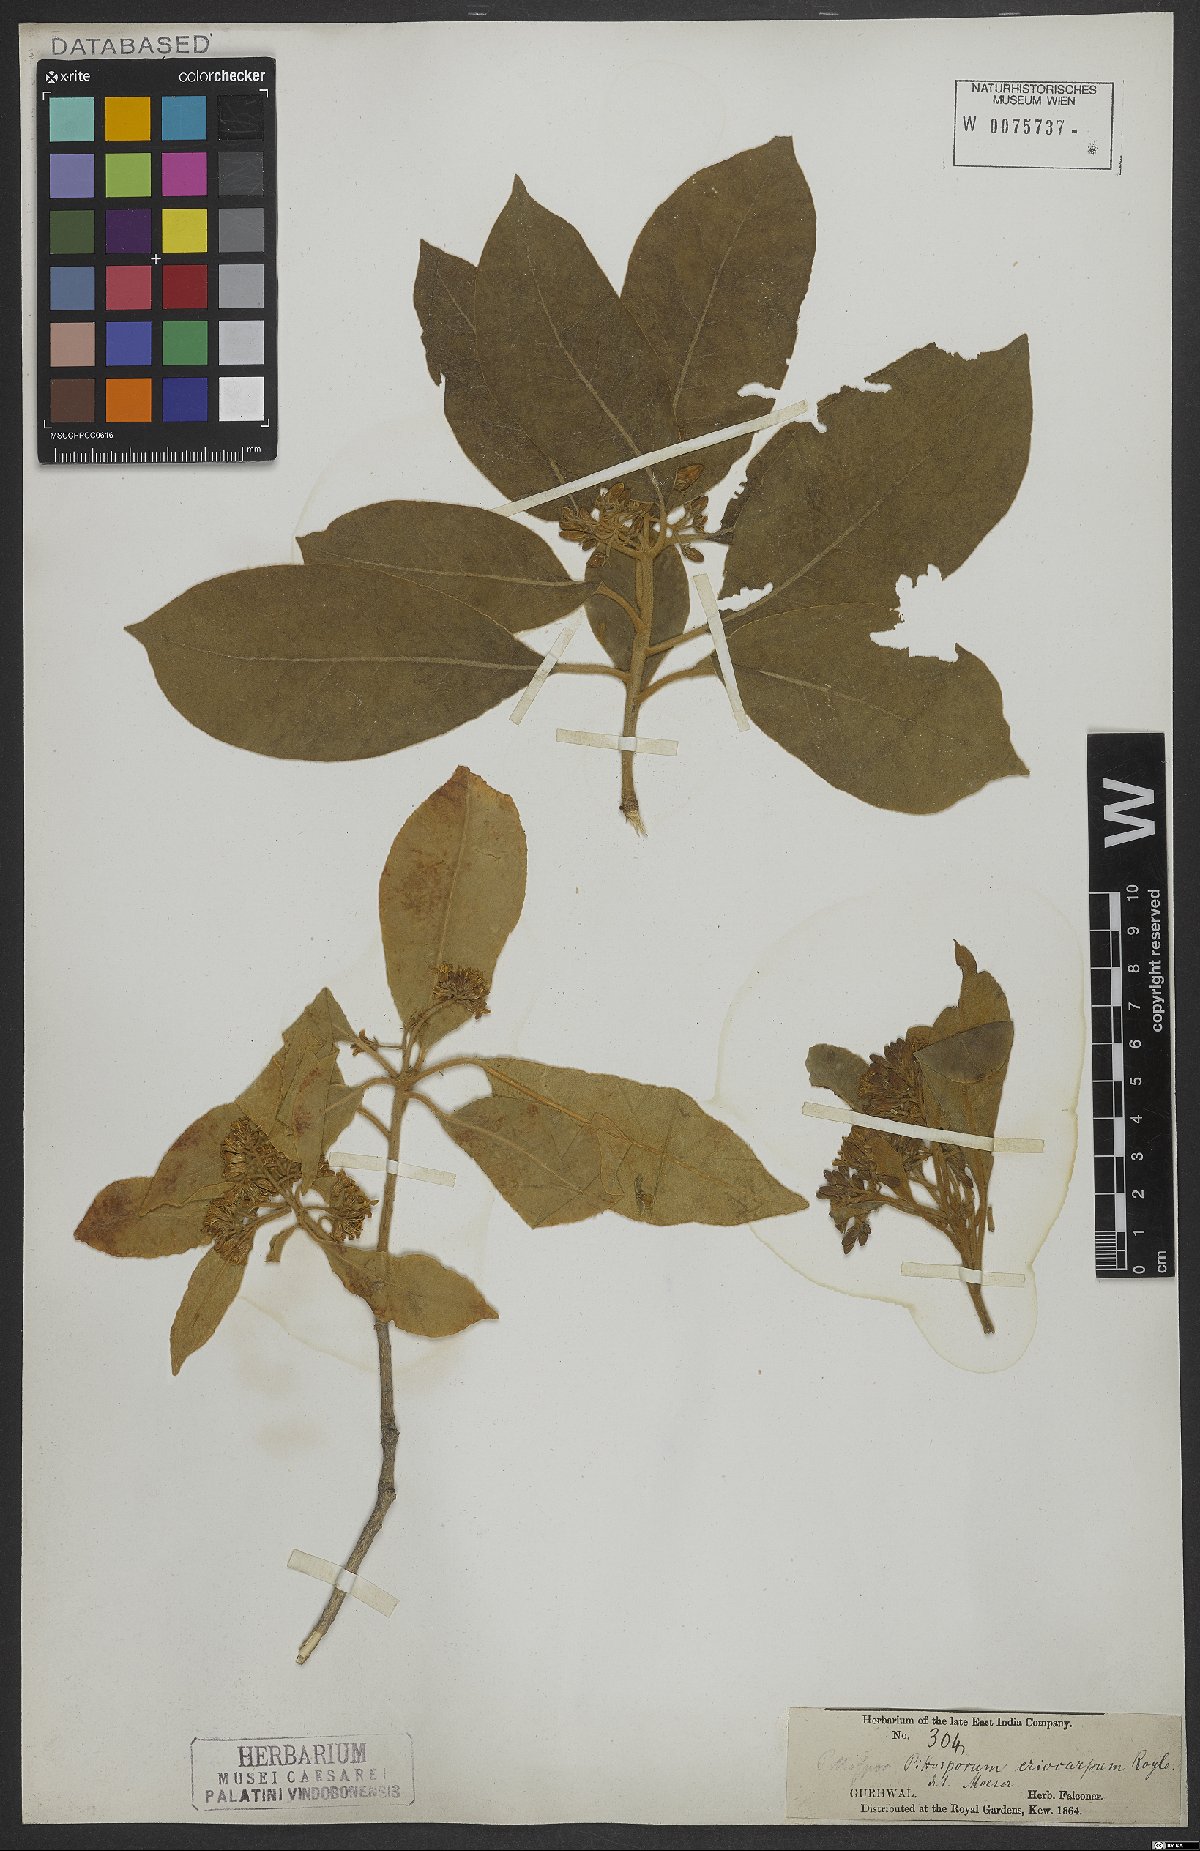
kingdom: Plantae
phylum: Tracheophyta
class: Magnoliopsida
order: Apiales
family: Pittosporaceae
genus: Pittosporum
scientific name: Pittosporum eriocarpum
